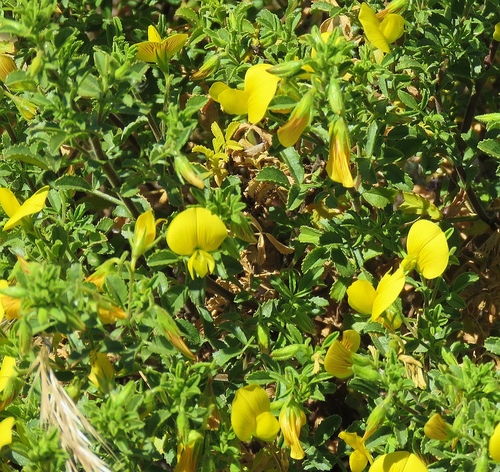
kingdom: Plantae
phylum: Tracheophyta
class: Magnoliopsida
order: Fabales
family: Fabaceae
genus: Ononis
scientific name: Ononis natrix
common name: Yellow restharrow
